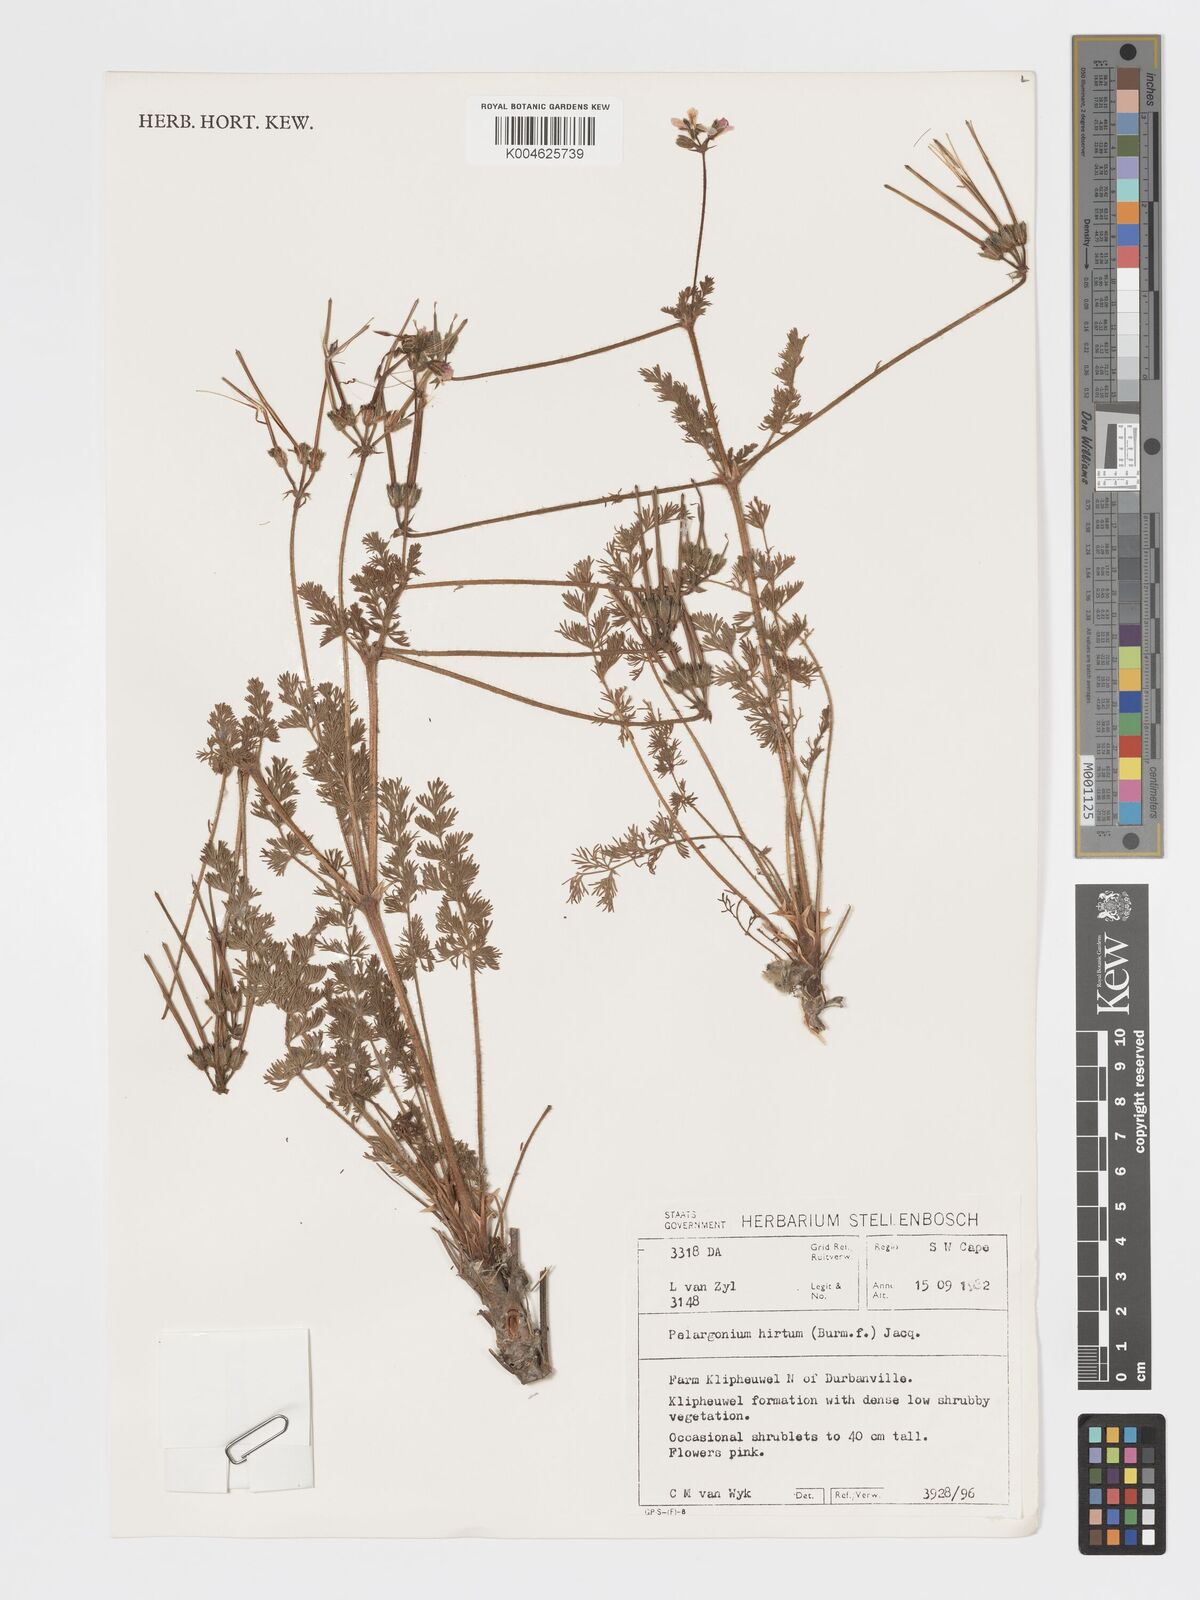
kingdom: Plantae
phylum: Tracheophyta
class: Magnoliopsida
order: Geraniales
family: Geraniaceae
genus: Pelargonium
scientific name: Pelargonium
